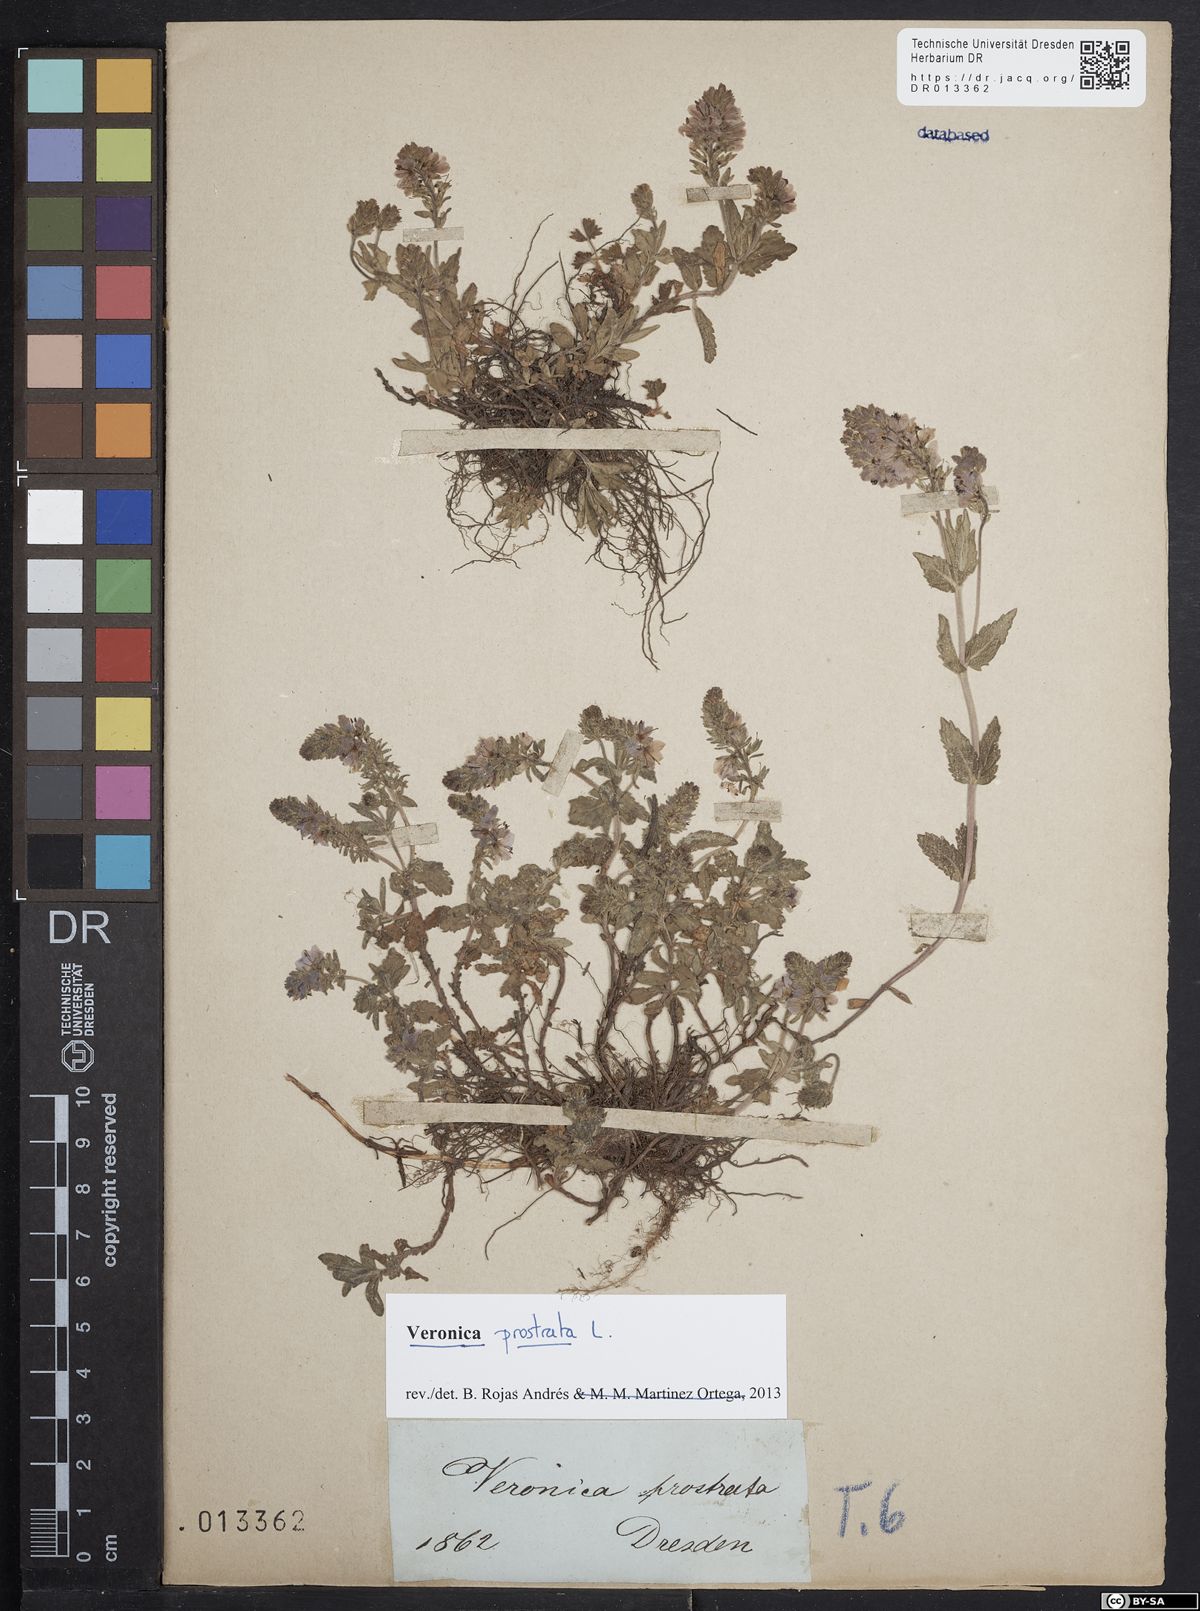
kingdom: Plantae
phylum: Tracheophyta
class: Magnoliopsida
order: Lamiales
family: Plantaginaceae
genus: Veronica
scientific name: Veronica prostrata
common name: Prostrate speedwell
